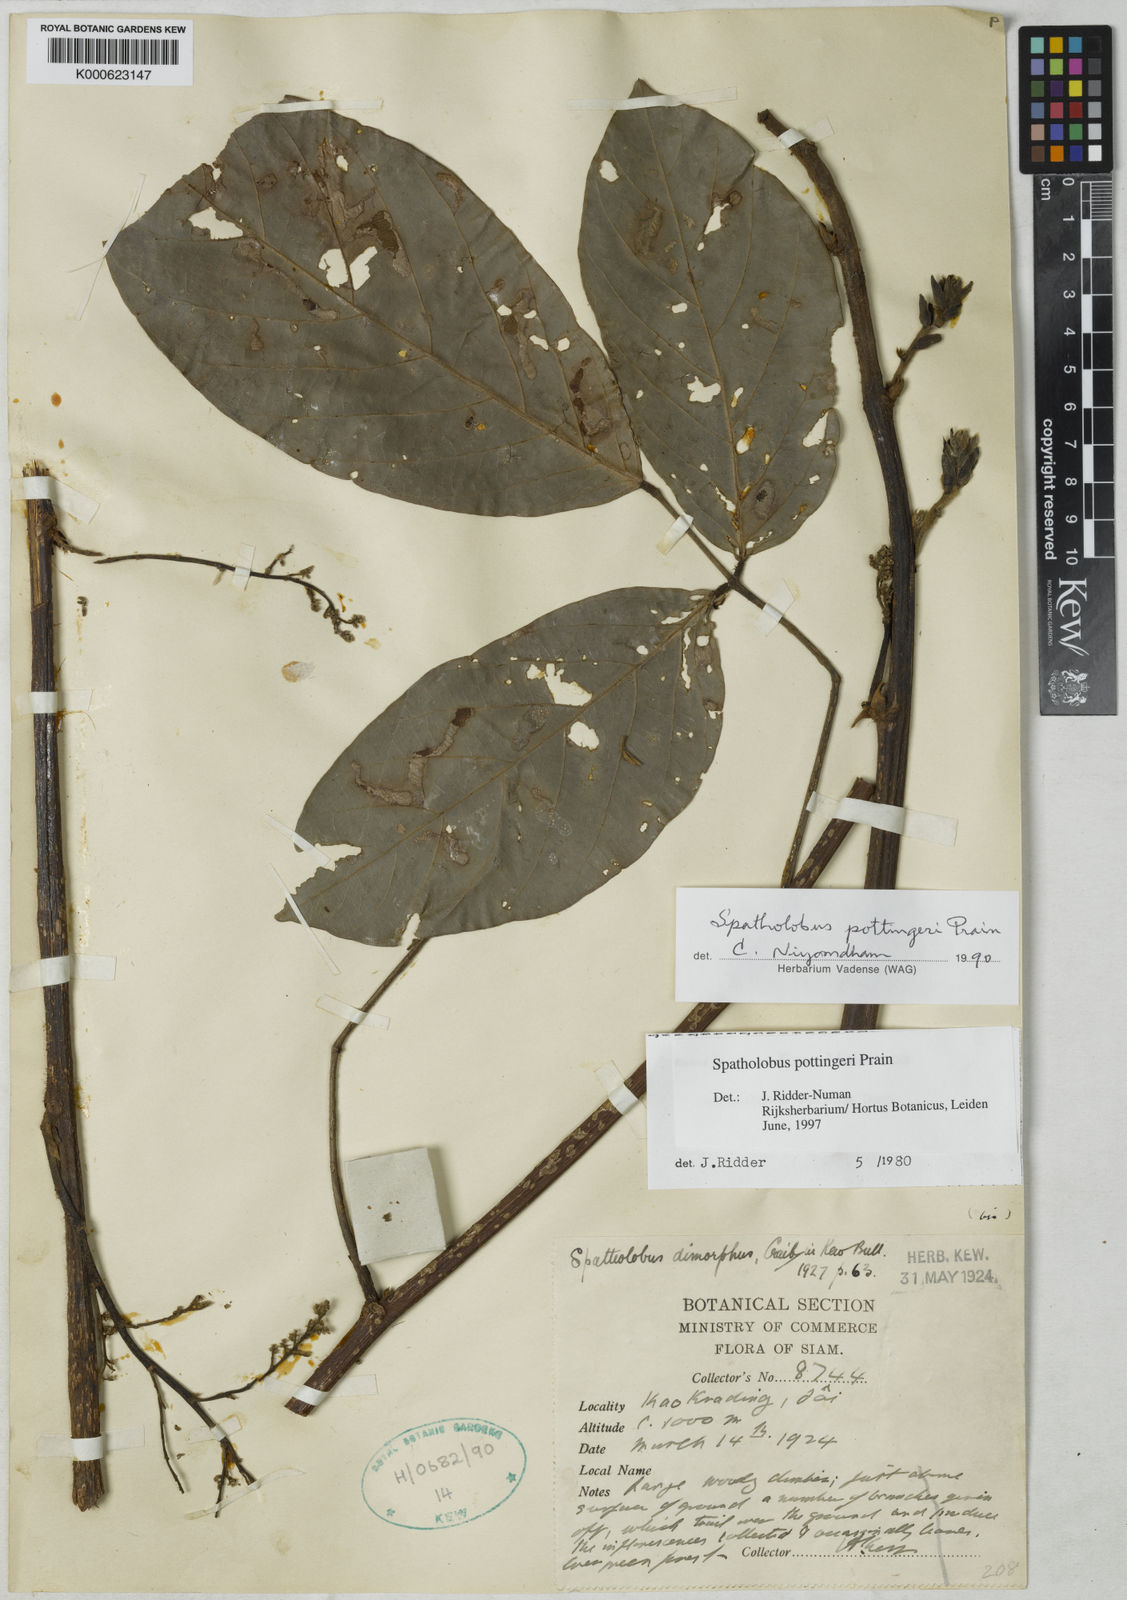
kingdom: Plantae
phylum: Tracheophyta
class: Magnoliopsida
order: Fabales
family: Fabaceae
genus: Spatholobus
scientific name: Spatholobus pottingeri
